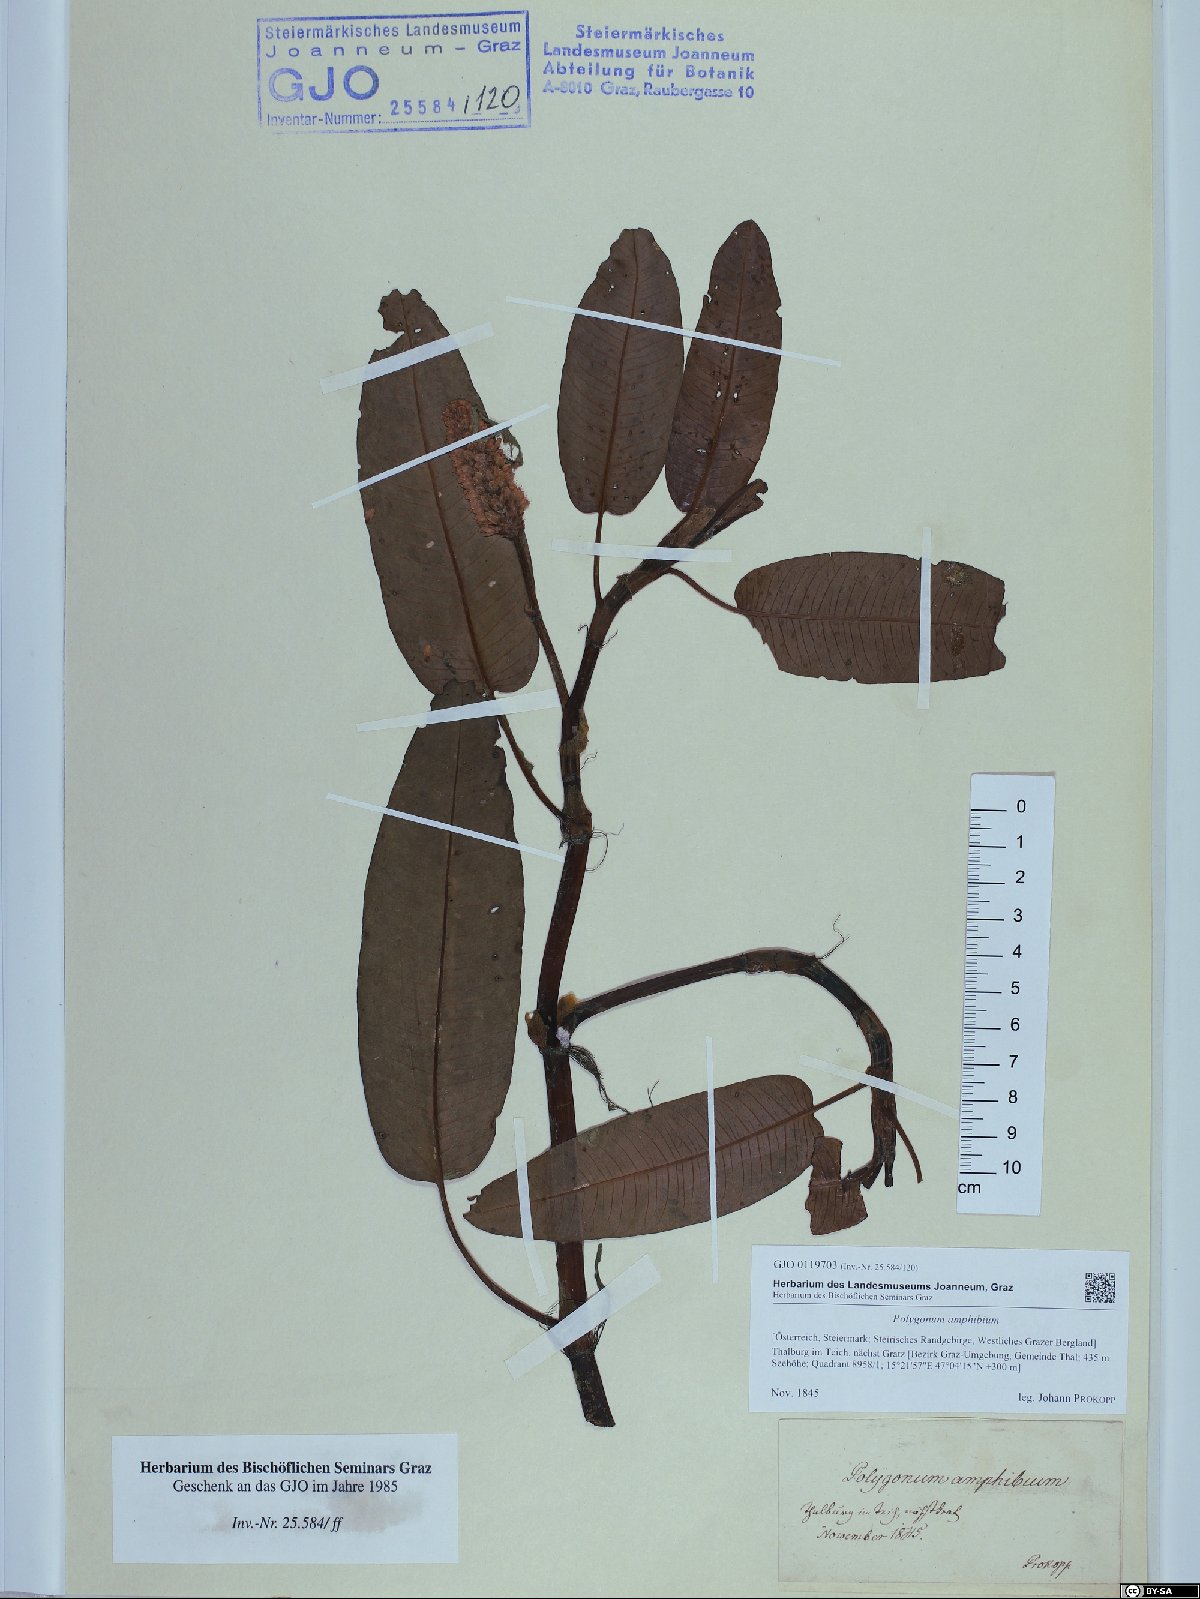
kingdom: Plantae
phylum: Tracheophyta
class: Magnoliopsida
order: Caryophyllales
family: Polygonaceae
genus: Persicaria
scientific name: Persicaria amphibia
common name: Amphibious bistort
